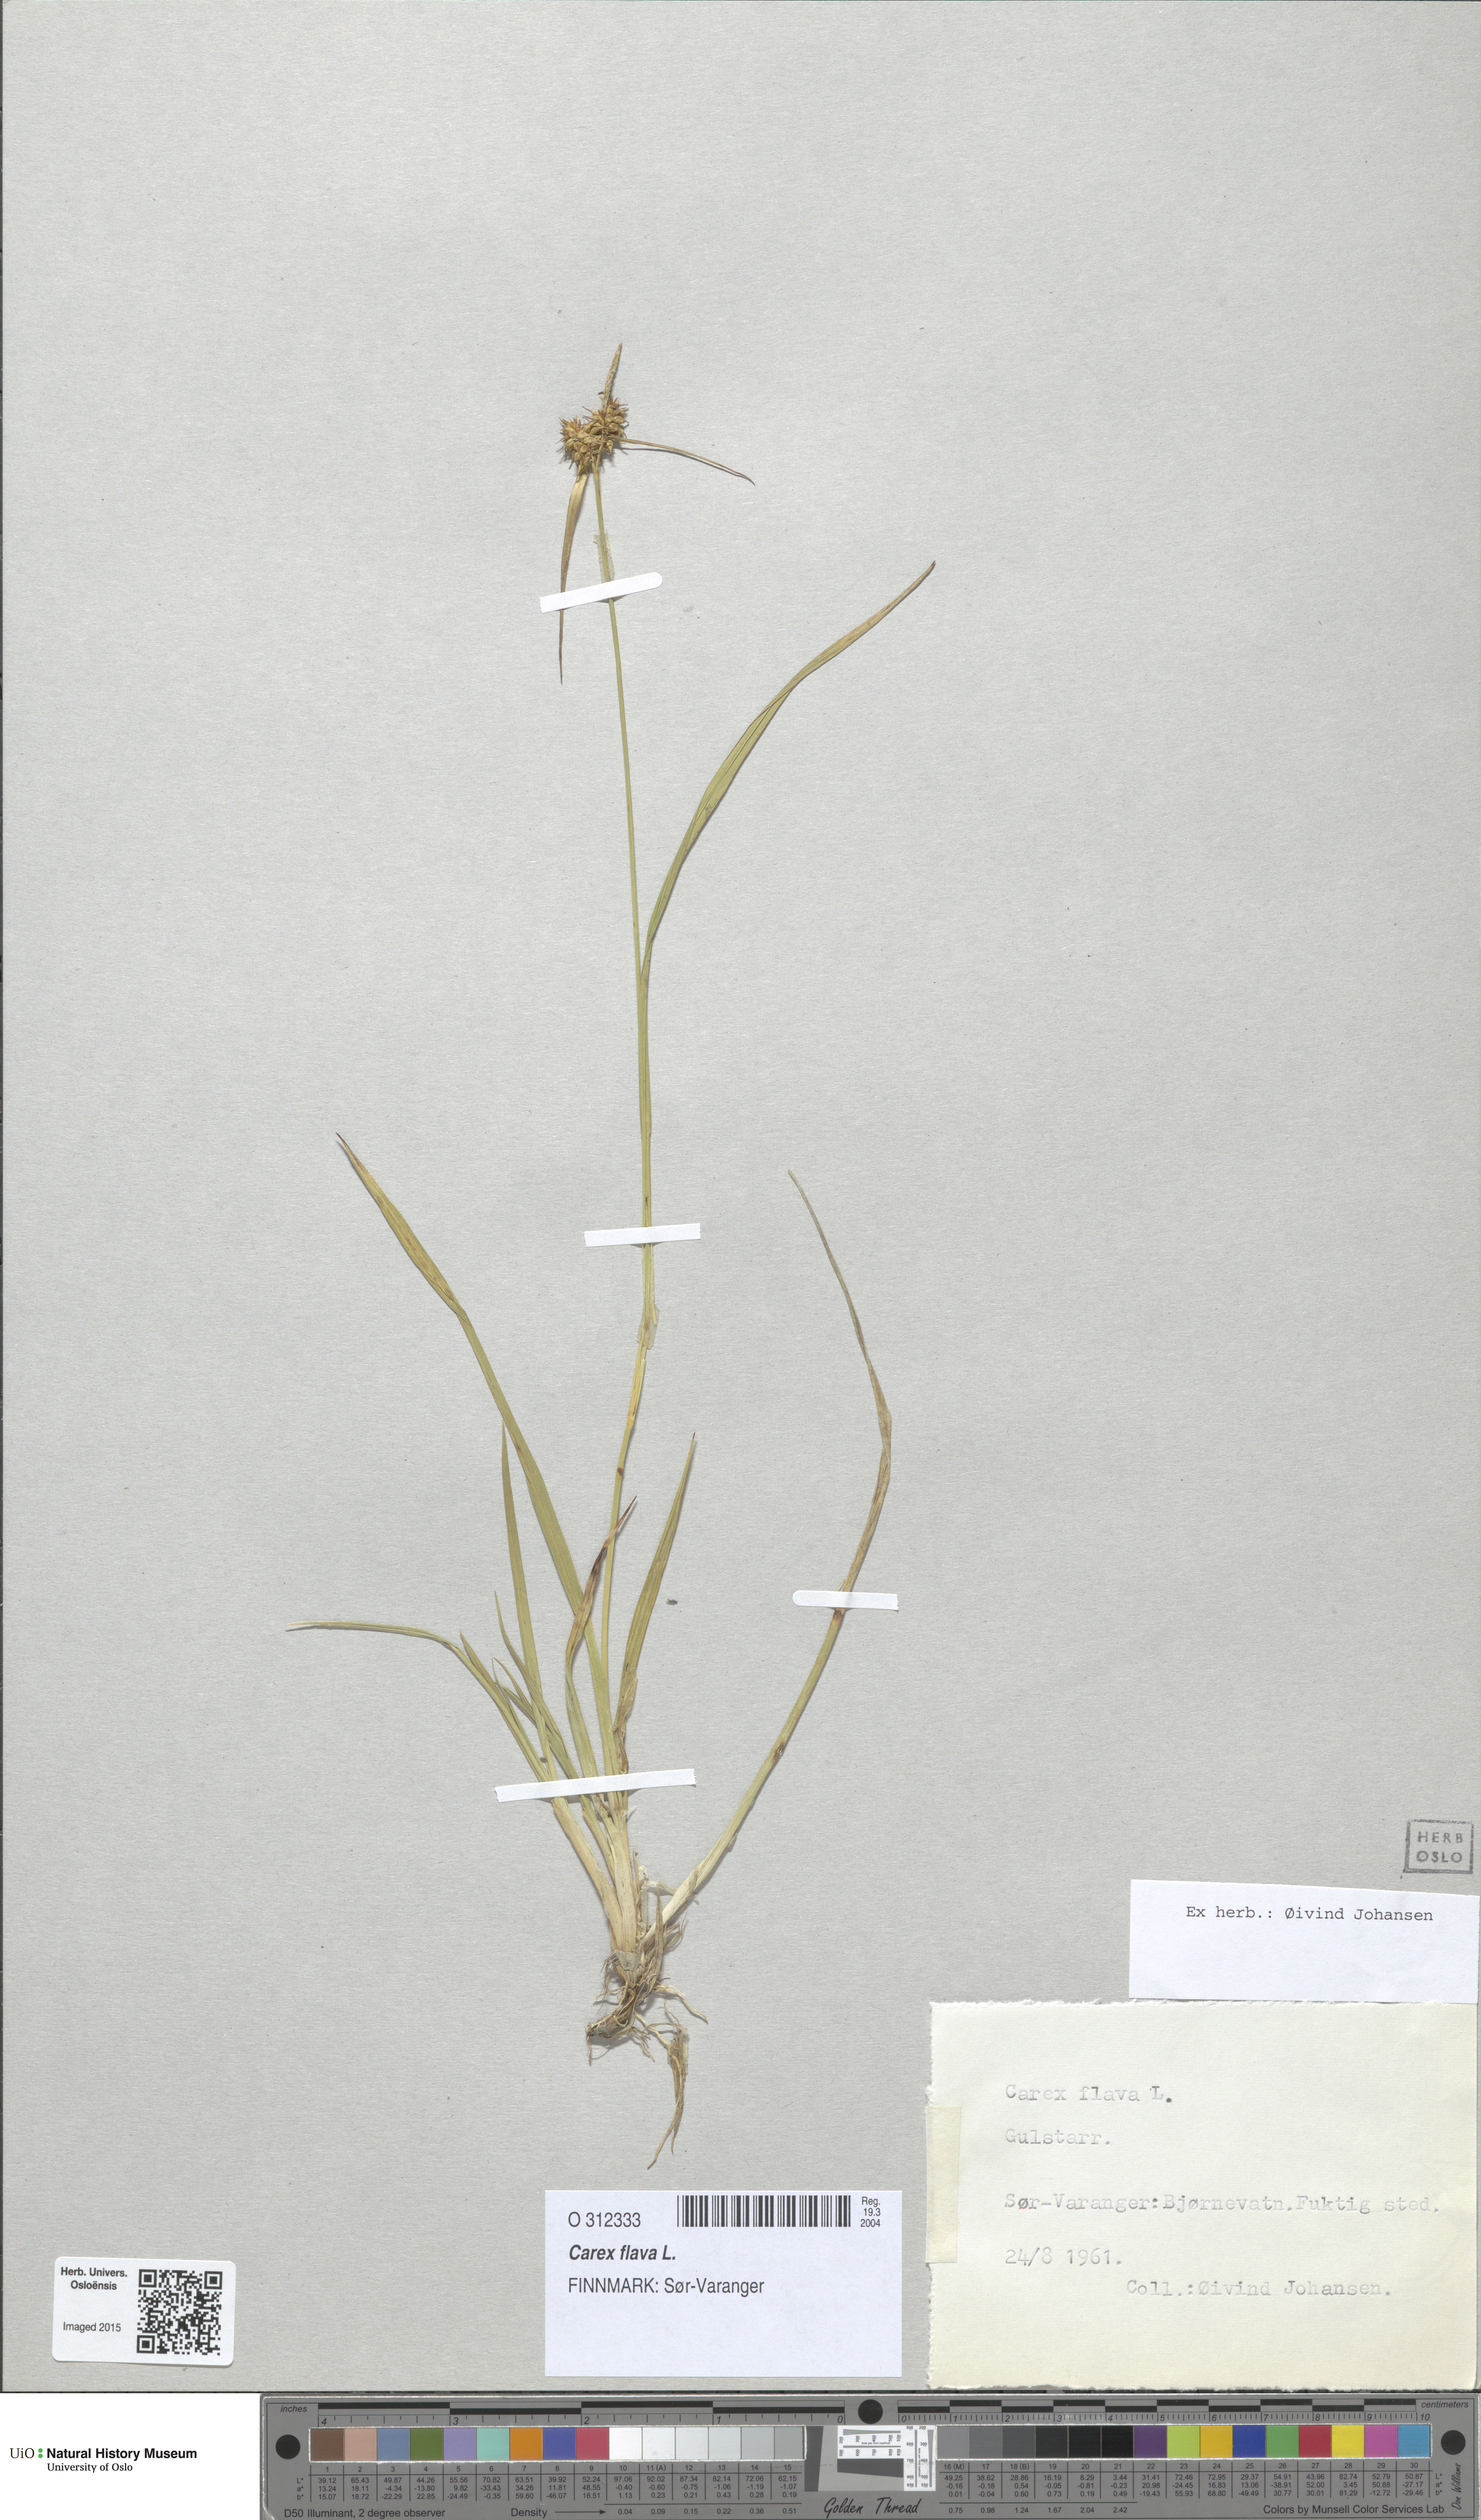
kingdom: Plantae
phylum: Tracheophyta
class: Liliopsida
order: Poales
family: Cyperaceae
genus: Carex
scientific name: Carex flava
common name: Large yellow-sedge
